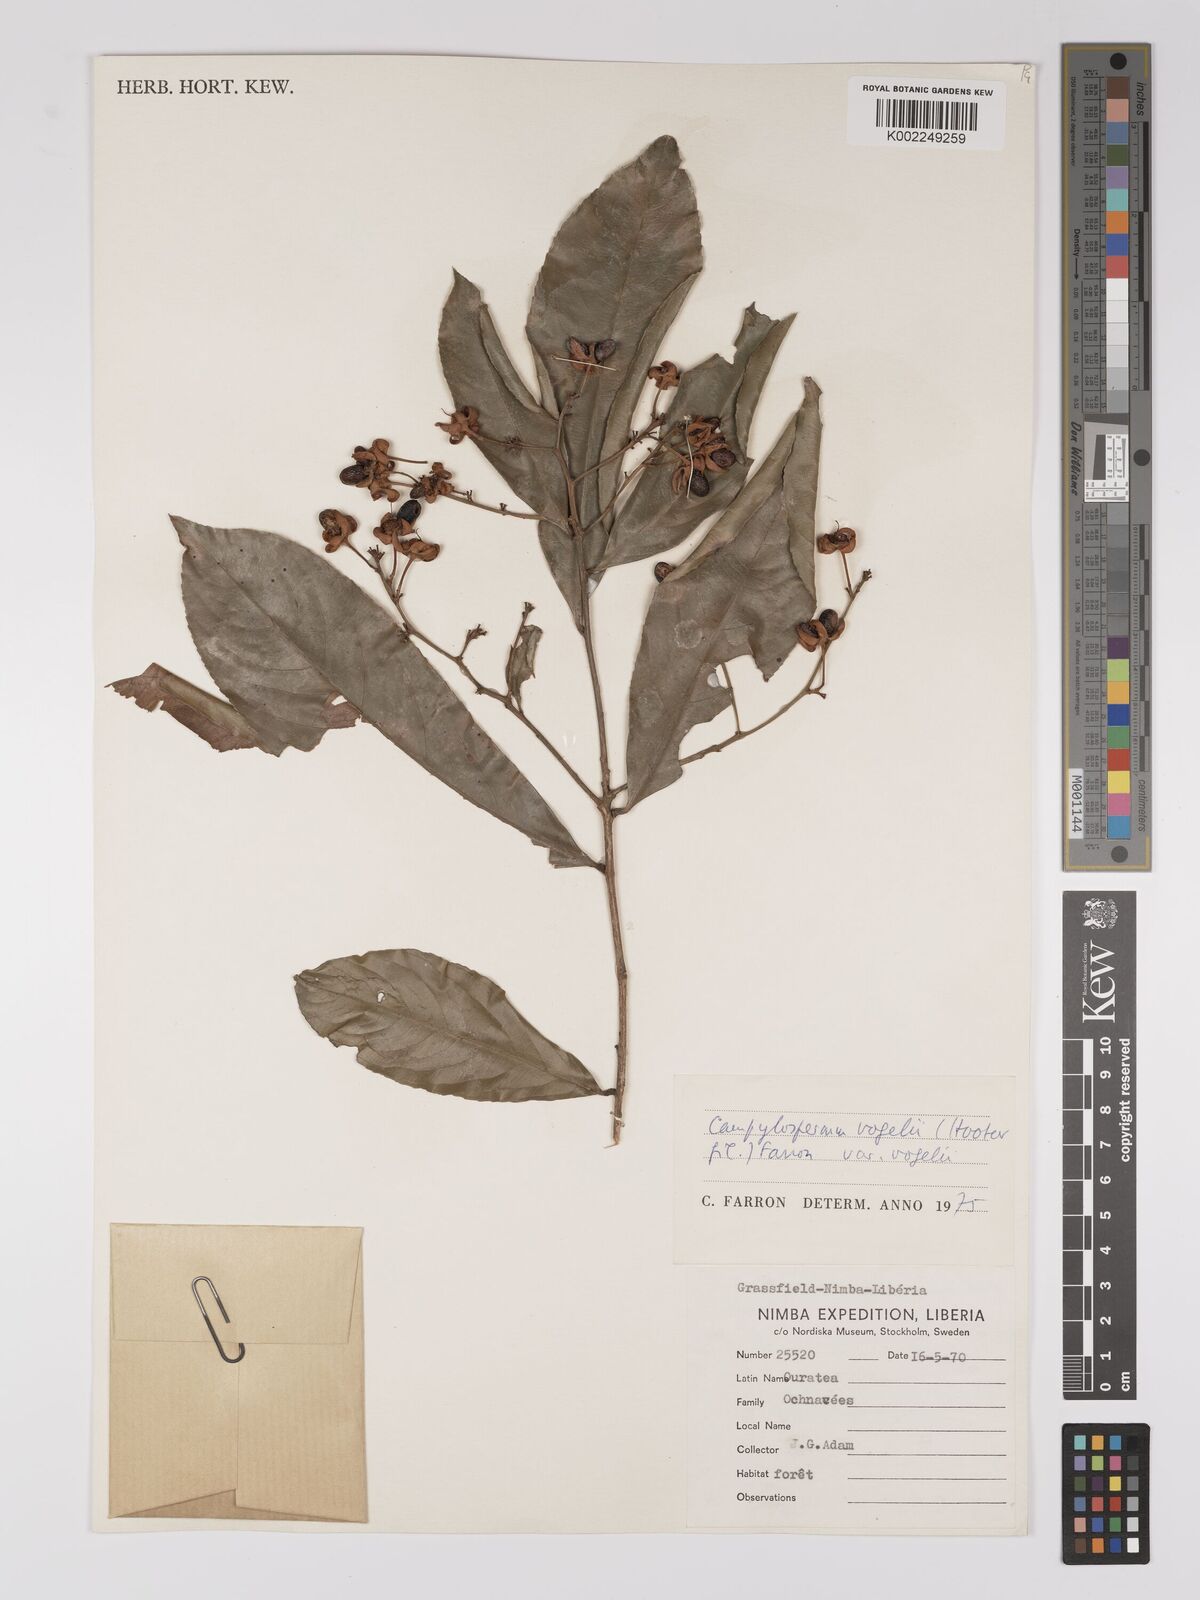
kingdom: Plantae
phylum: Tracheophyta
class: Magnoliopsida
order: Malpighiales
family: Ochnaceae
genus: Campylospermum
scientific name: Campylospermum vogelii
